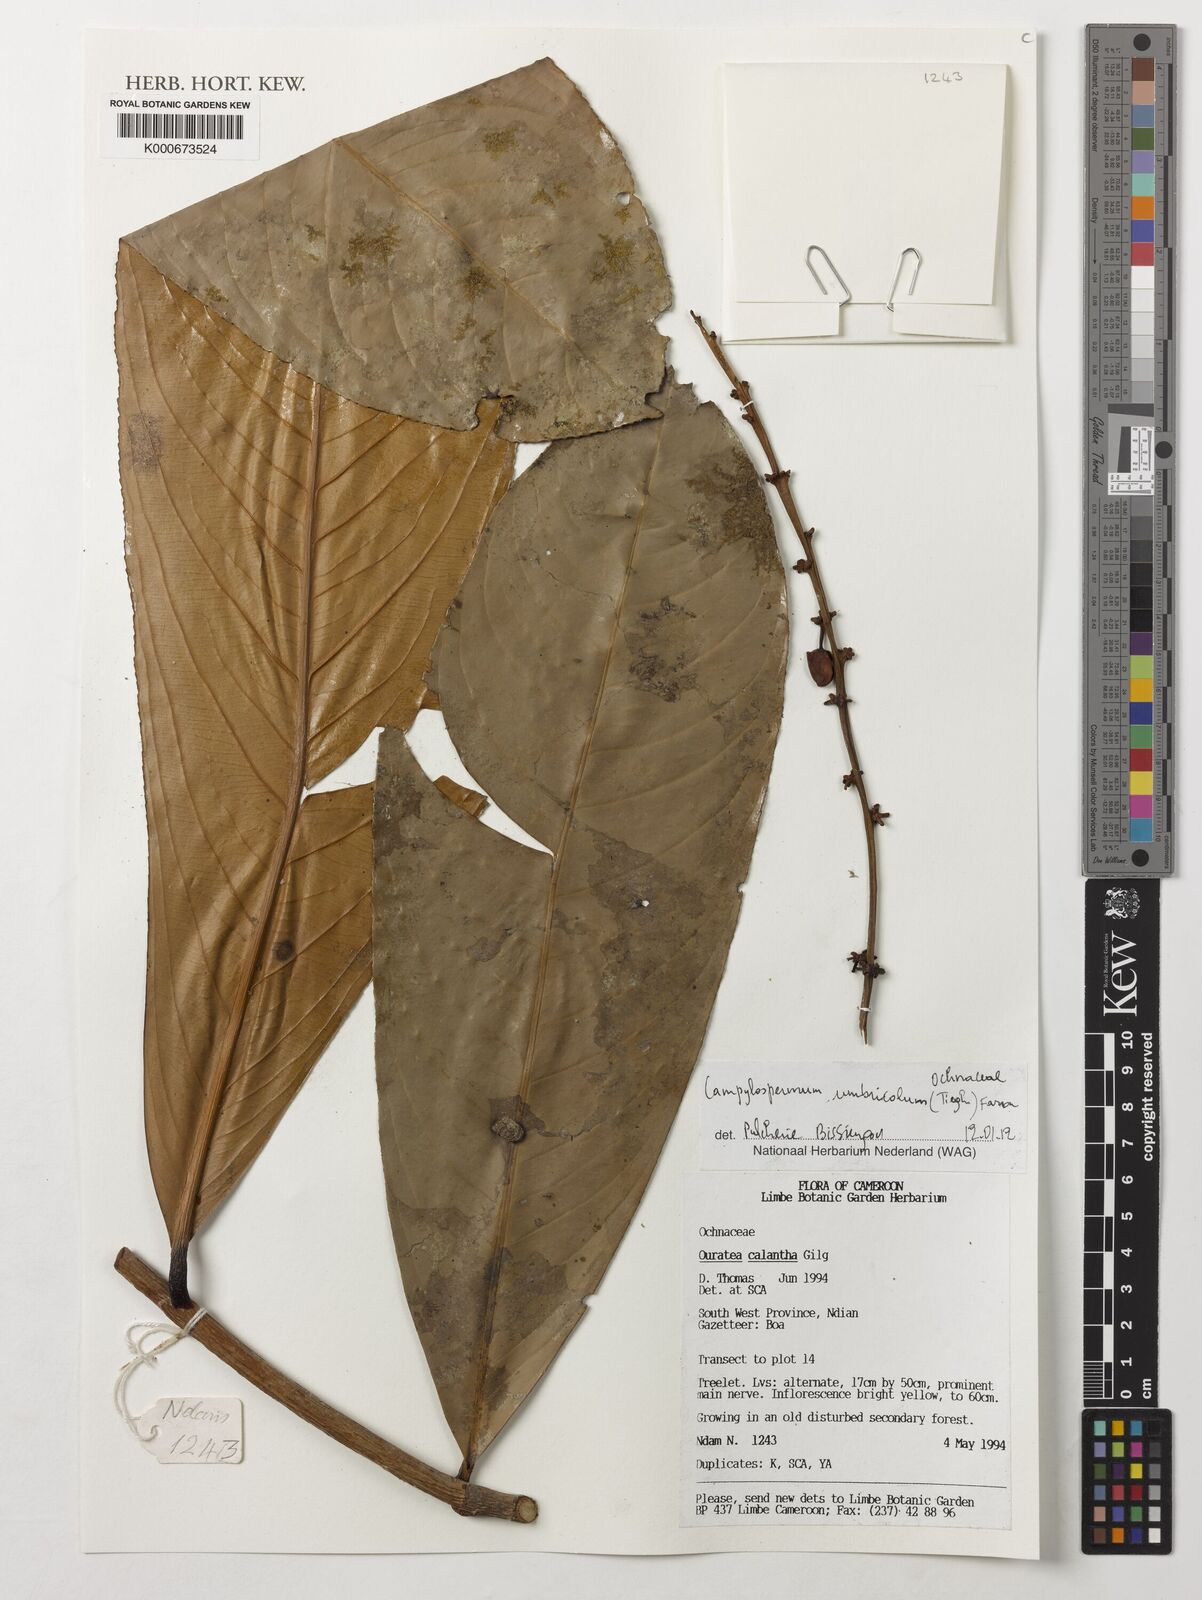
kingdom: Plantae
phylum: Tracheophyta
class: Magnoliopsida
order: Malpighiales
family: Ochnaceae
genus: Campylospermum
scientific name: Campylospermum umbricola
